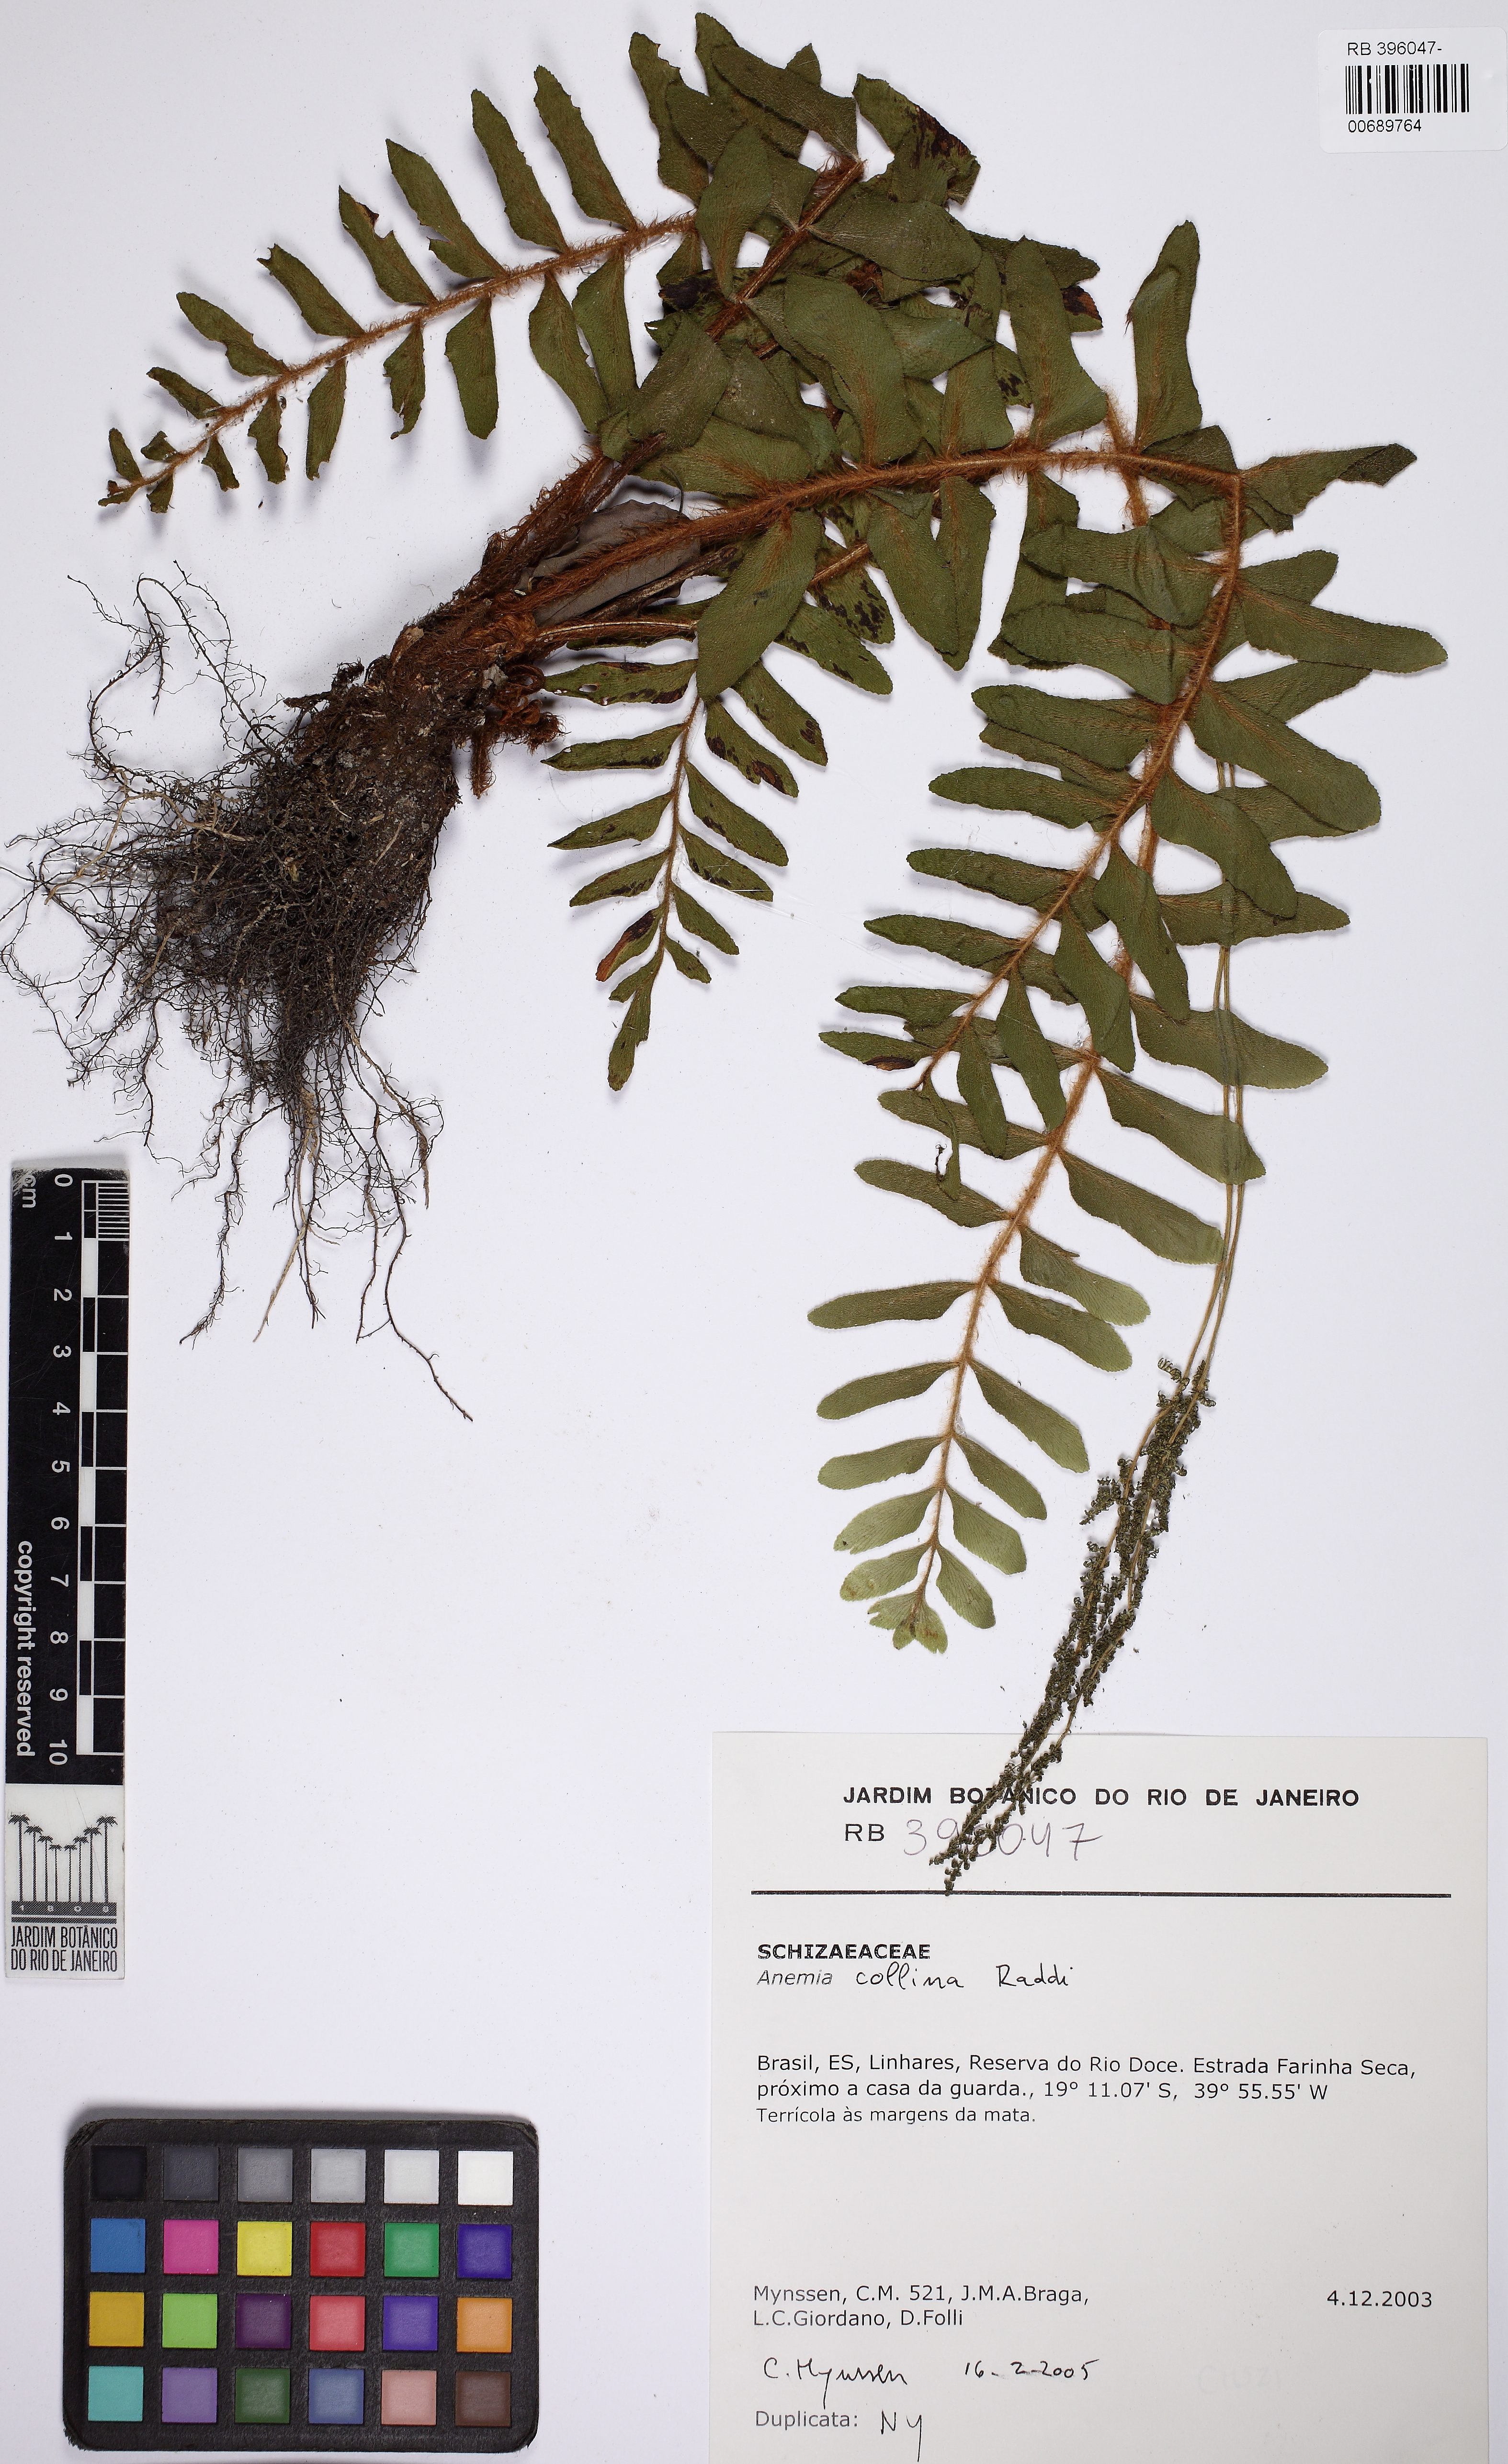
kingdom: Plantae
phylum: Tracheophyta
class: Polypodiopsida
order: Schizaeales
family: Anemiaceae
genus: Anemia
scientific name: Anemia collina
